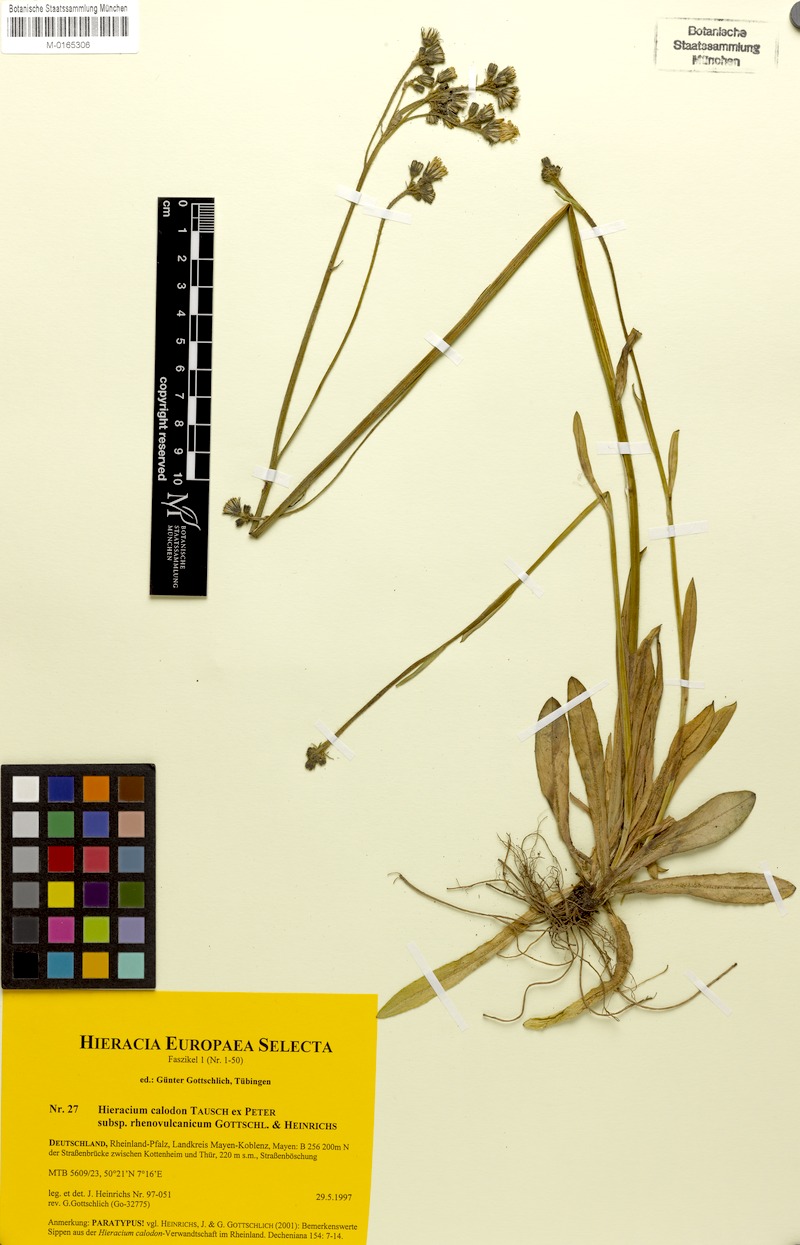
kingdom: Plantae
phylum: Tracheophyta
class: Magnoliopsida
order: Asterales
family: Asteraceae
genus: Pilosella
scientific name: Pilosella calodon
